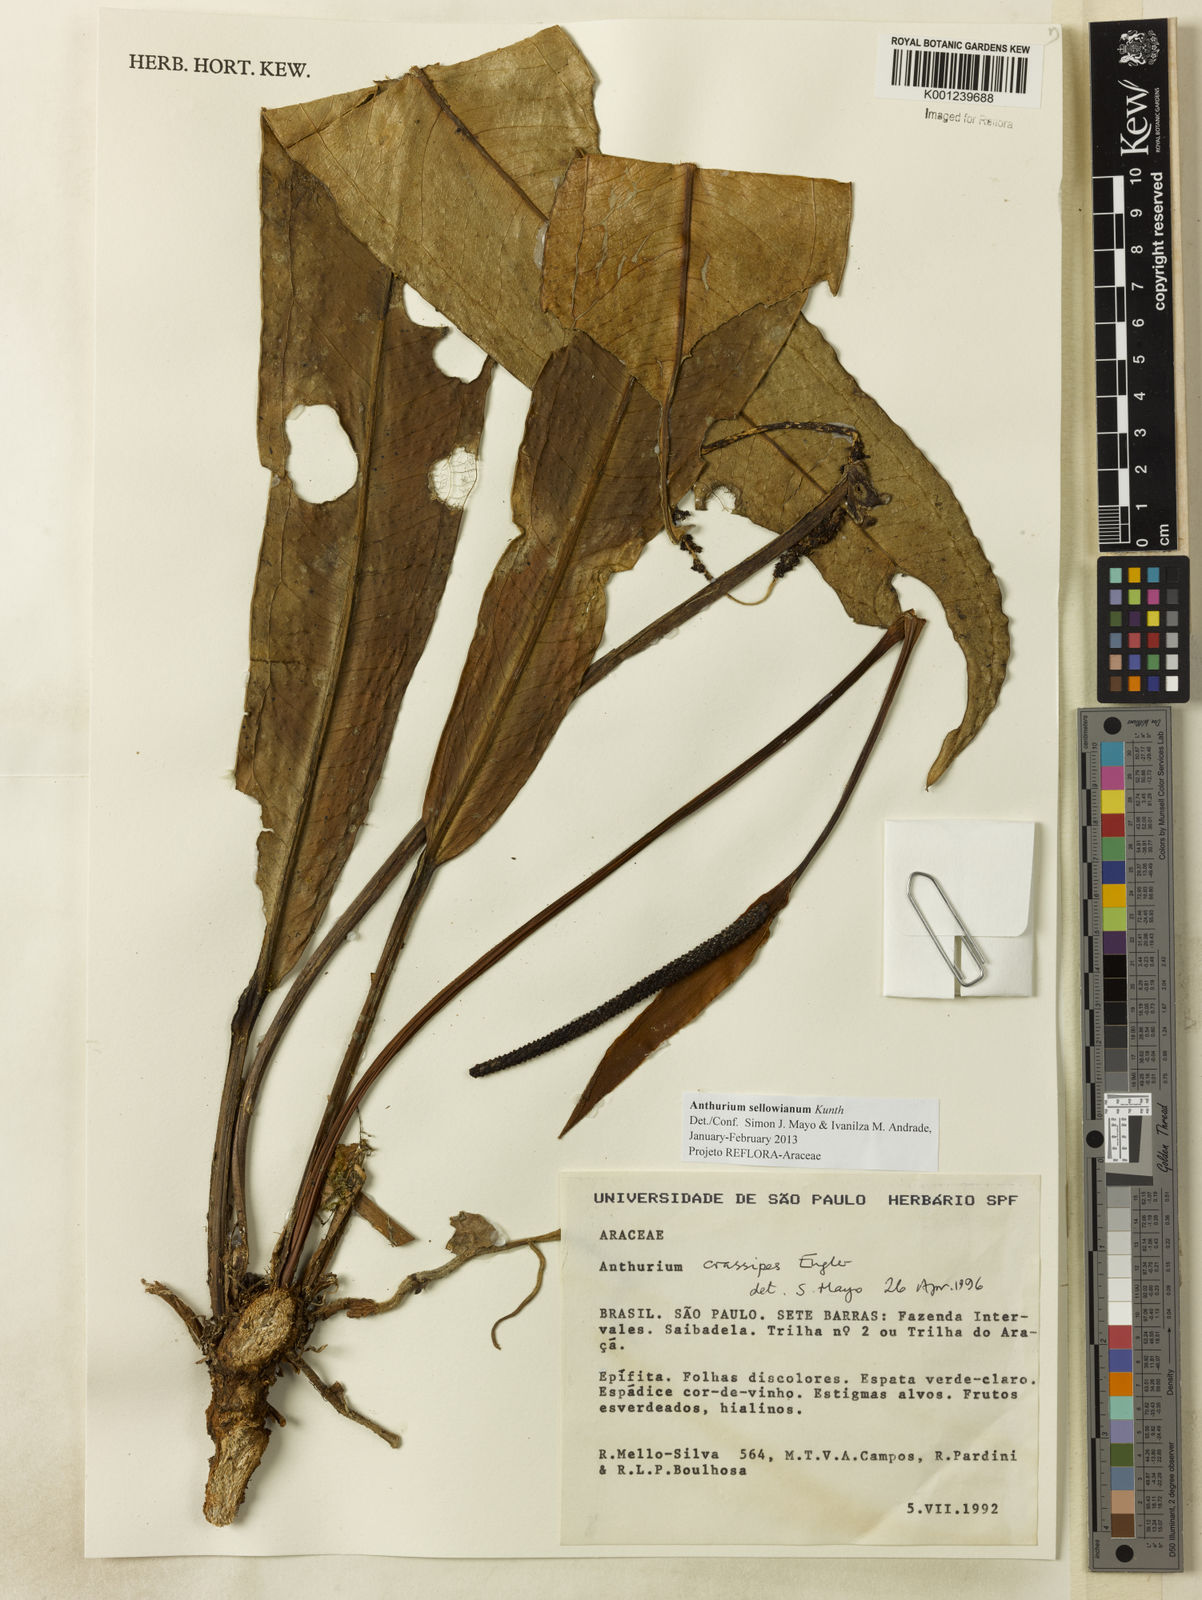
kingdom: Plantae
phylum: Tracheophyta
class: Liliopsida
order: Alismatales
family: Araceae
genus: Anthurium
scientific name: Anthurium sellowianum
